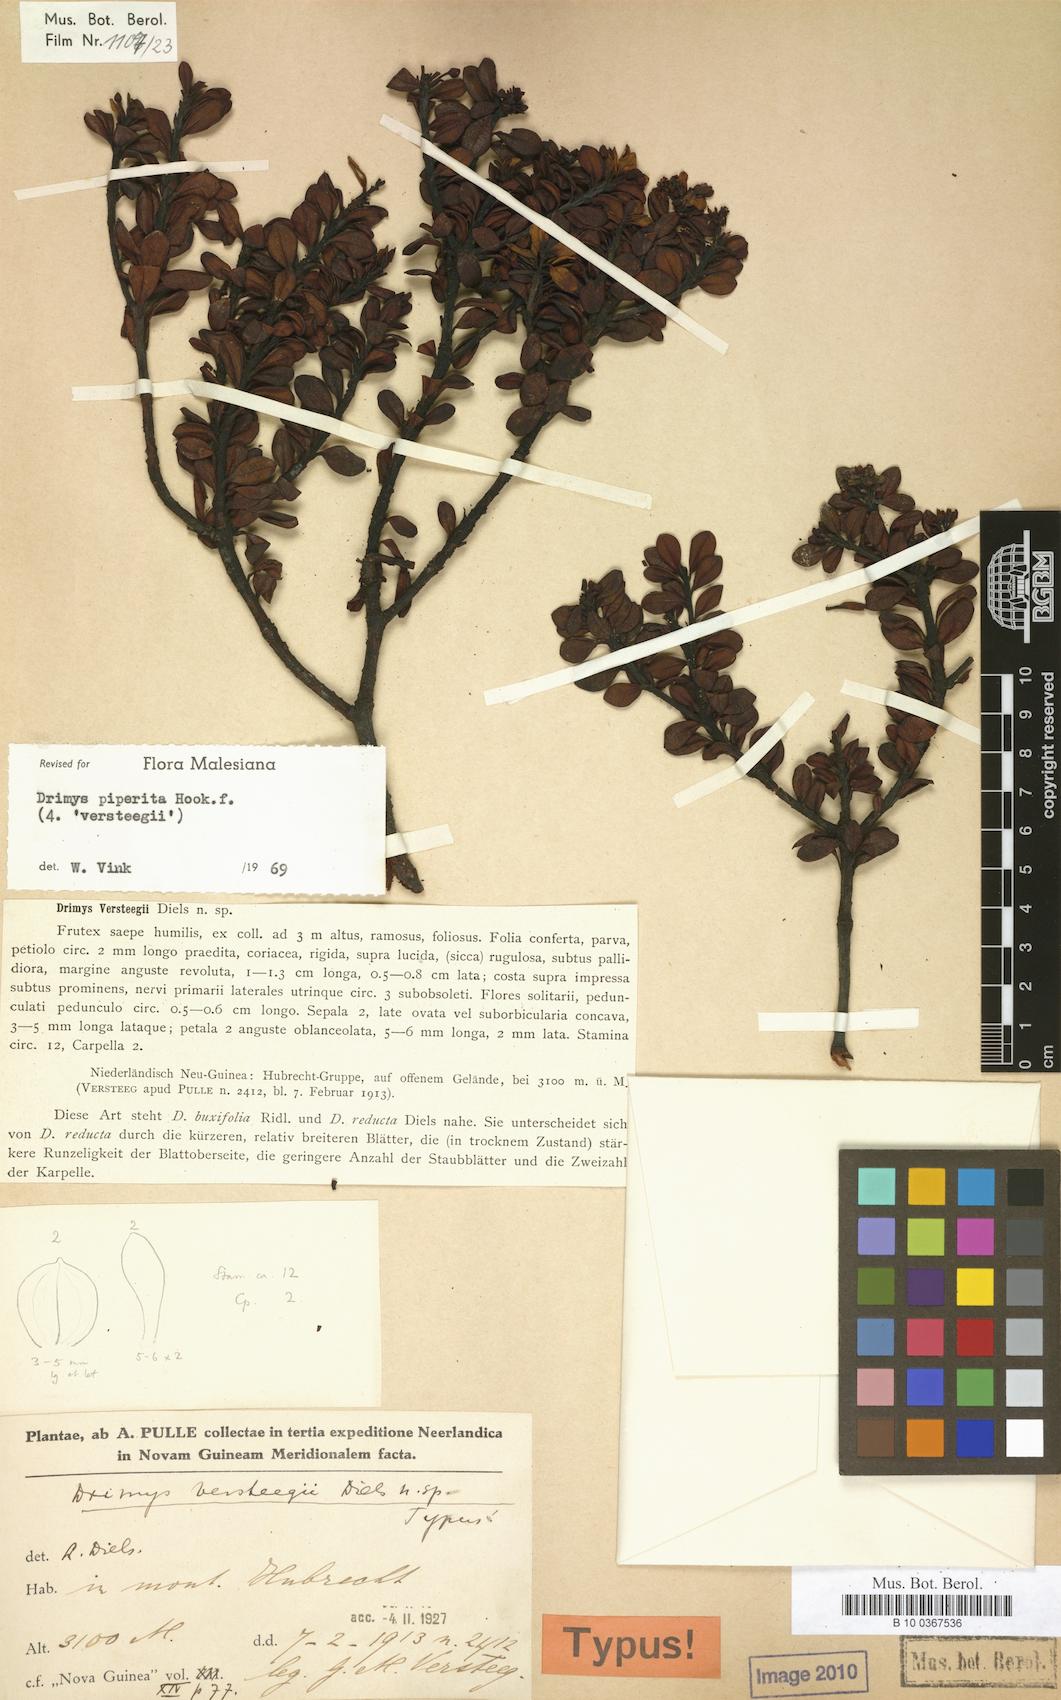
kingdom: Plantae
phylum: Tracheophyta
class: Magnoliopsida
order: Canellales
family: Winteraceae
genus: Drimys
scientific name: Drimys piperita
